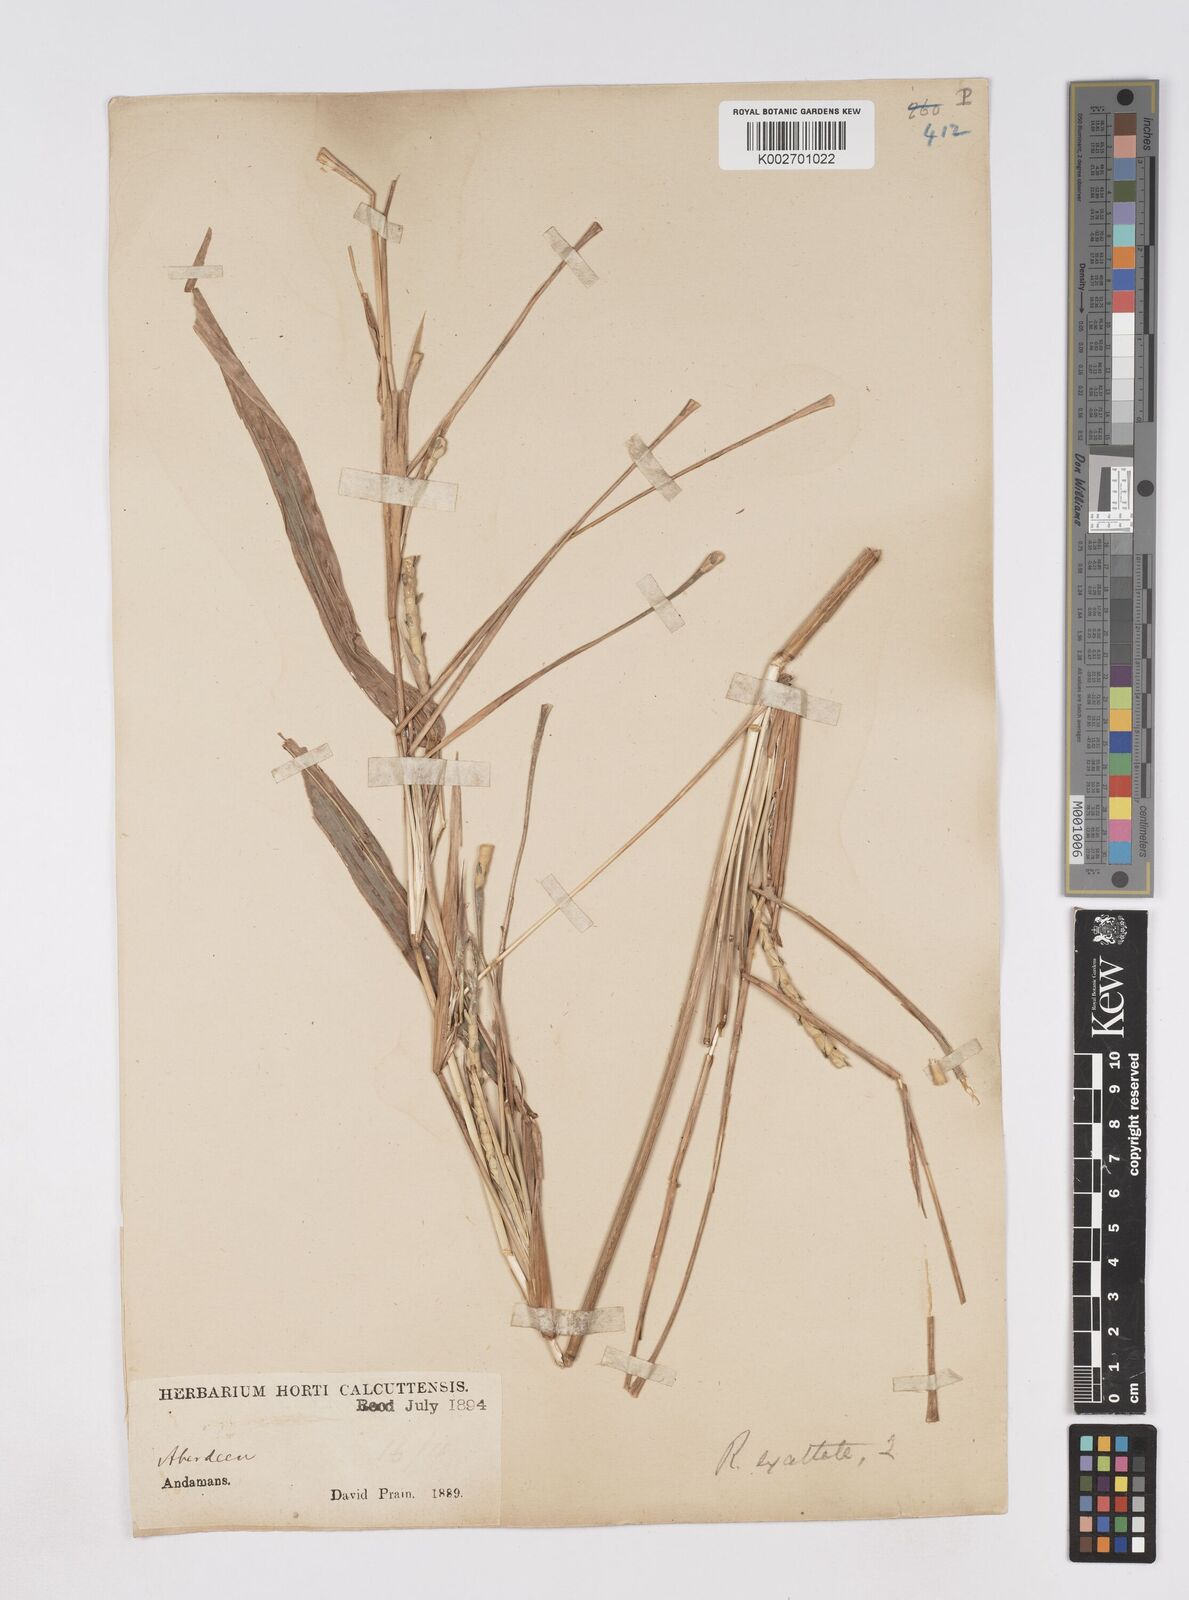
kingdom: Plantae
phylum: Tracheophyta
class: Liliopsida
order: Poales
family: Poaceae
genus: Ophiuros
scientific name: Ophiuros exaltatus
